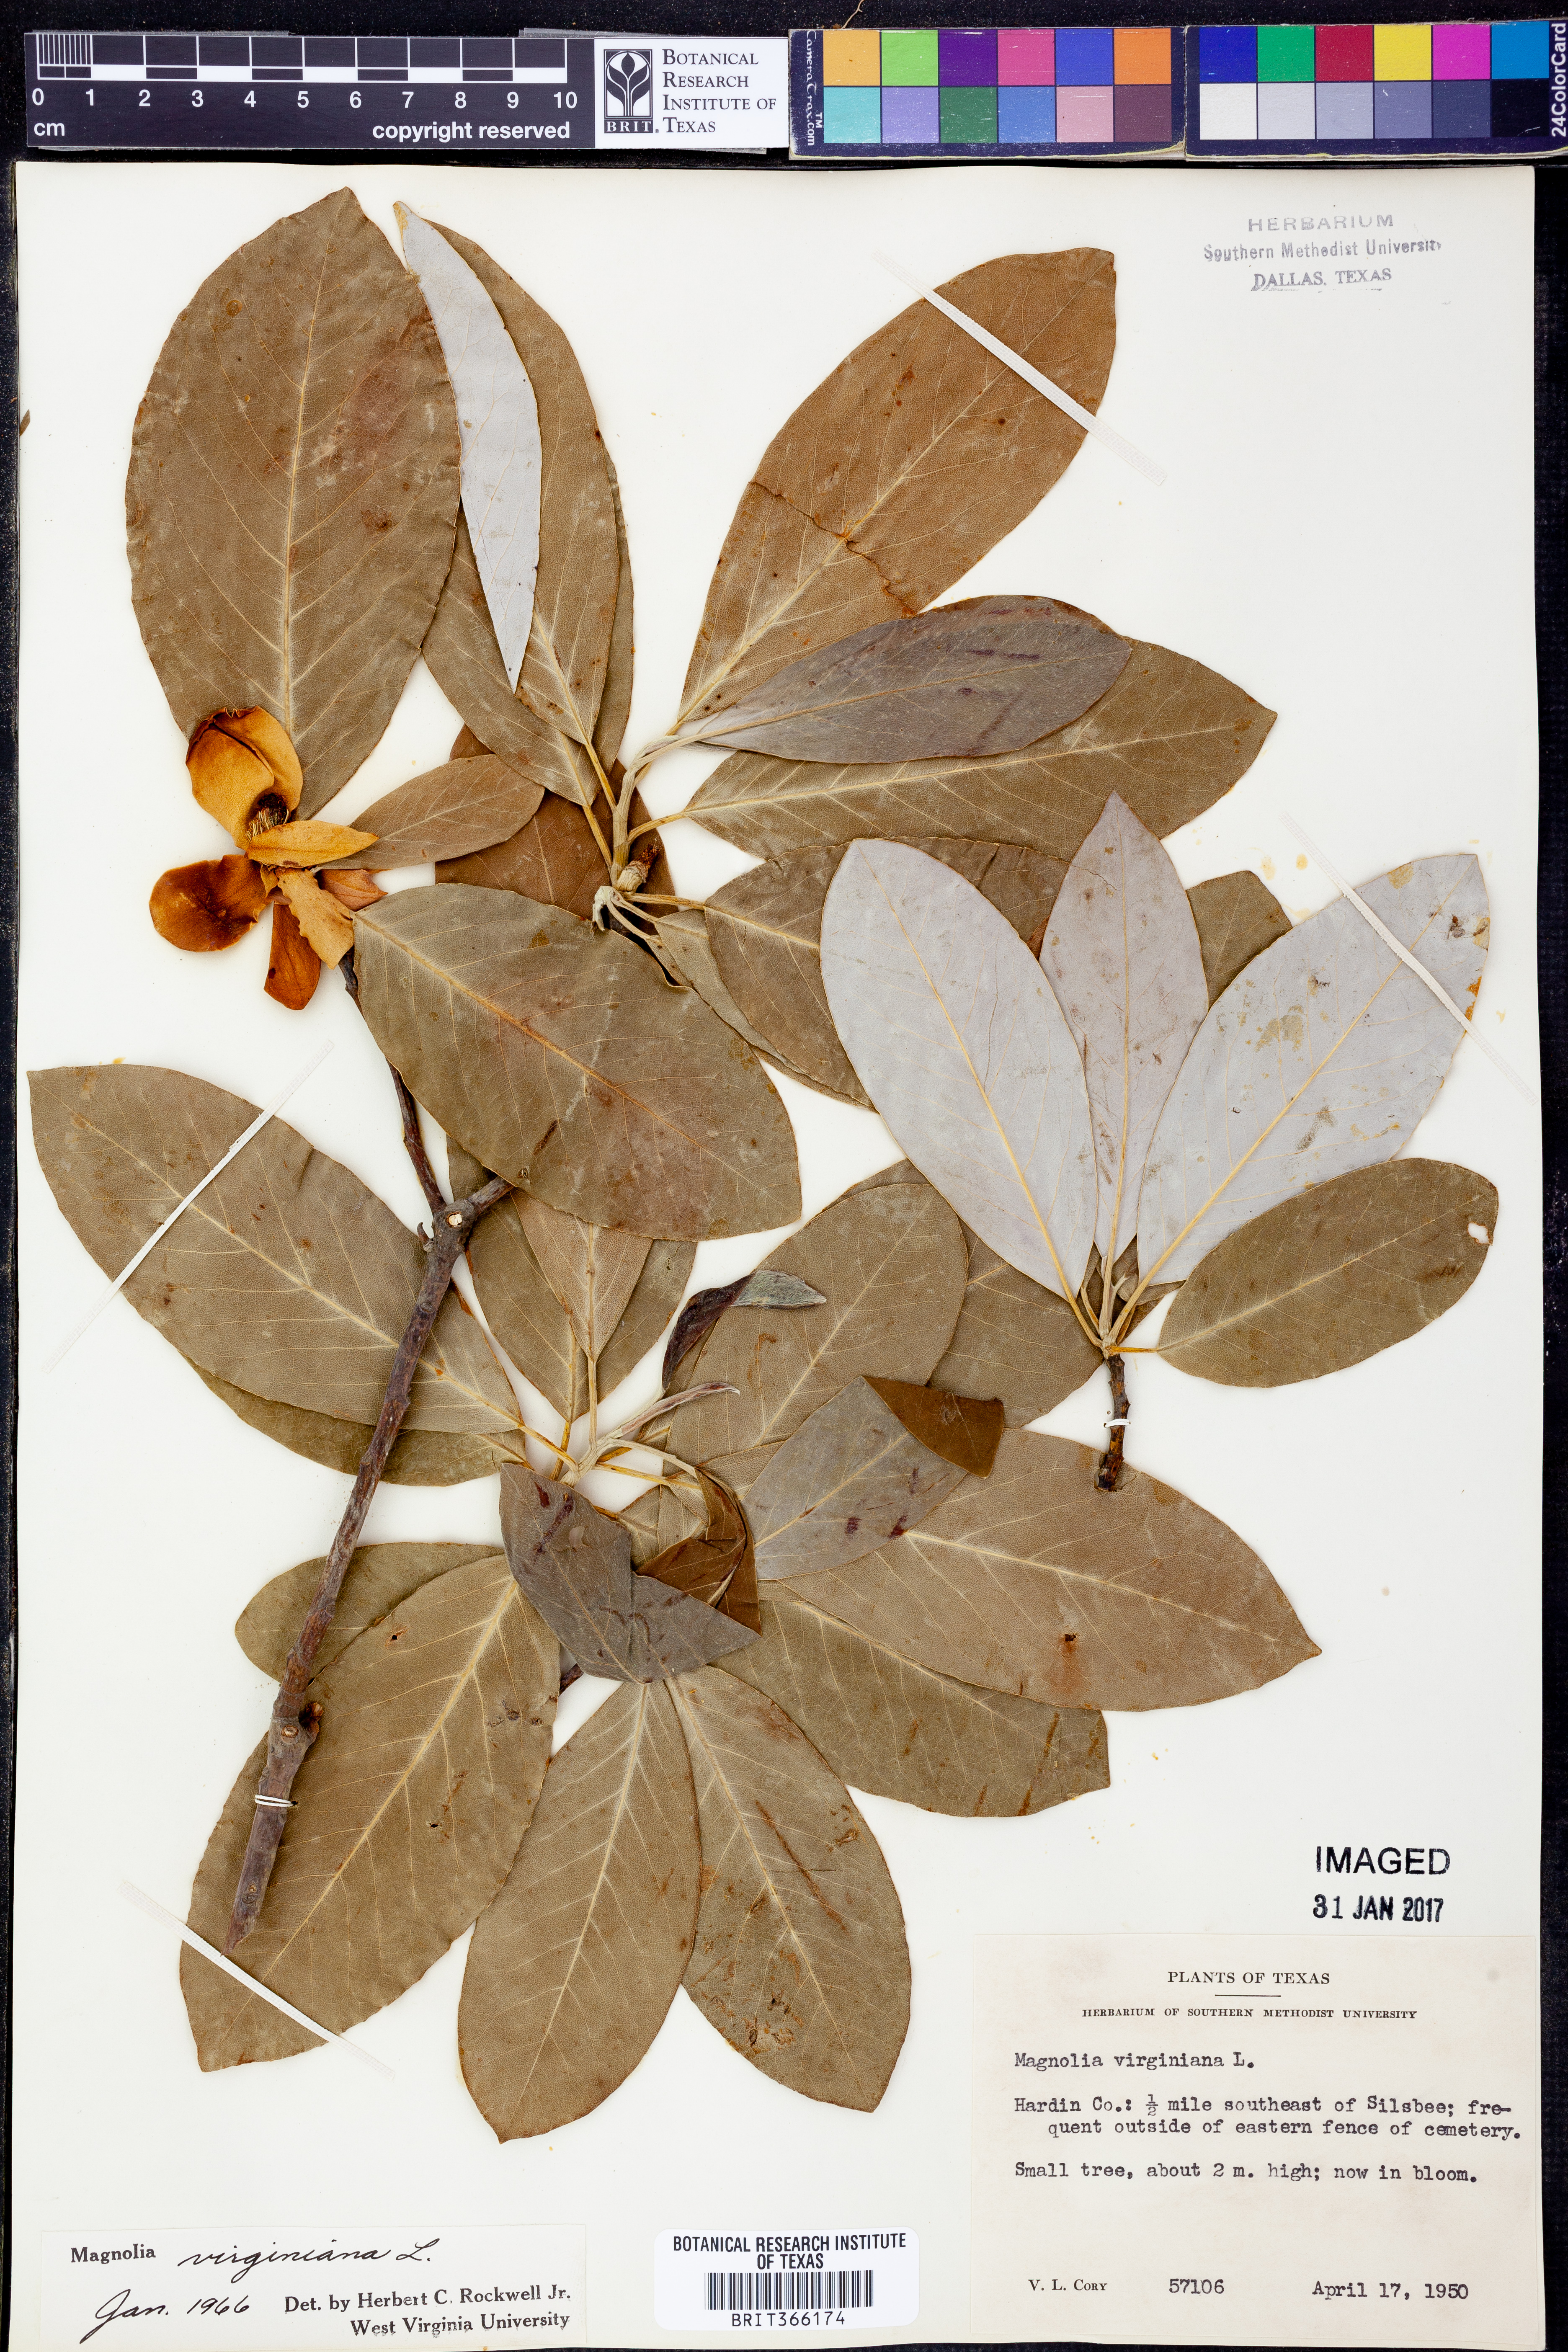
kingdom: Plantae
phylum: Tracheophyta
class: Magnoliopsida
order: Magnoliales
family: Magnoliaceae
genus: Magnolia
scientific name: Magnolia virginiana
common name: Swamp bay
